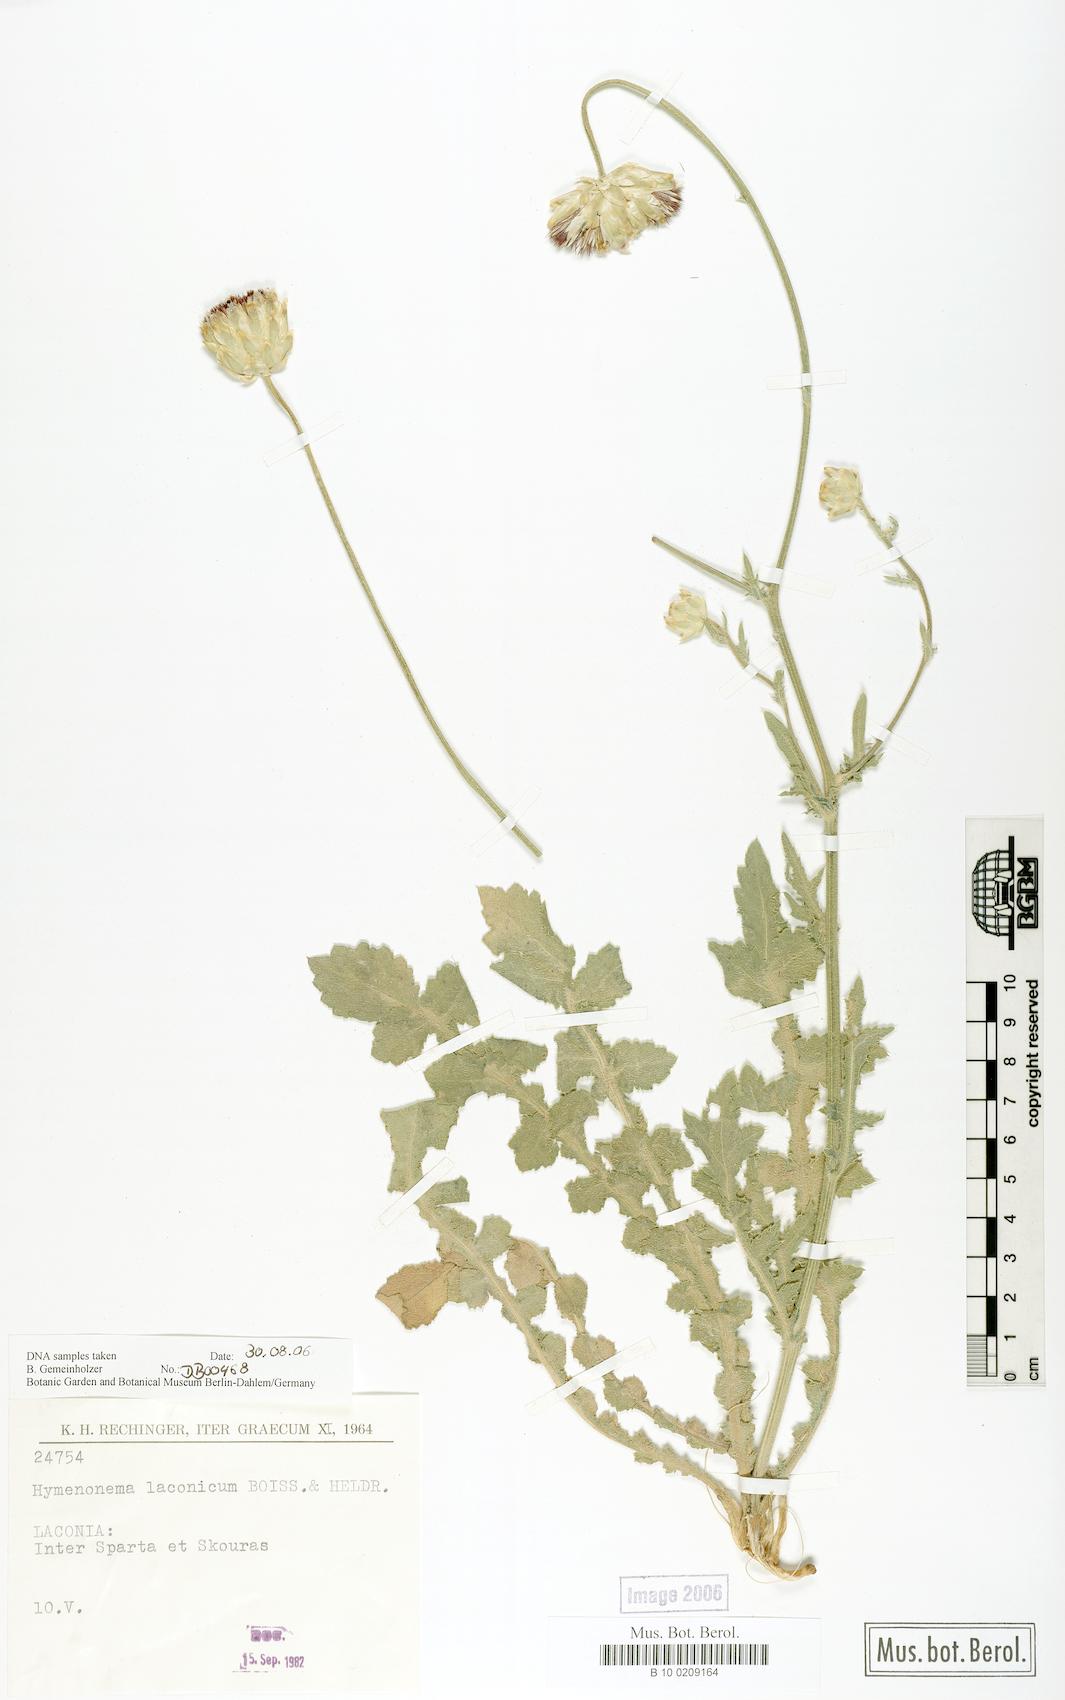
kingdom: Plantae
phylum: Tracheophyta
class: Magnoliopsida
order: Asterales
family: Asteraceae
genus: Hymenonema
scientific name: Hymenonema laconicum
